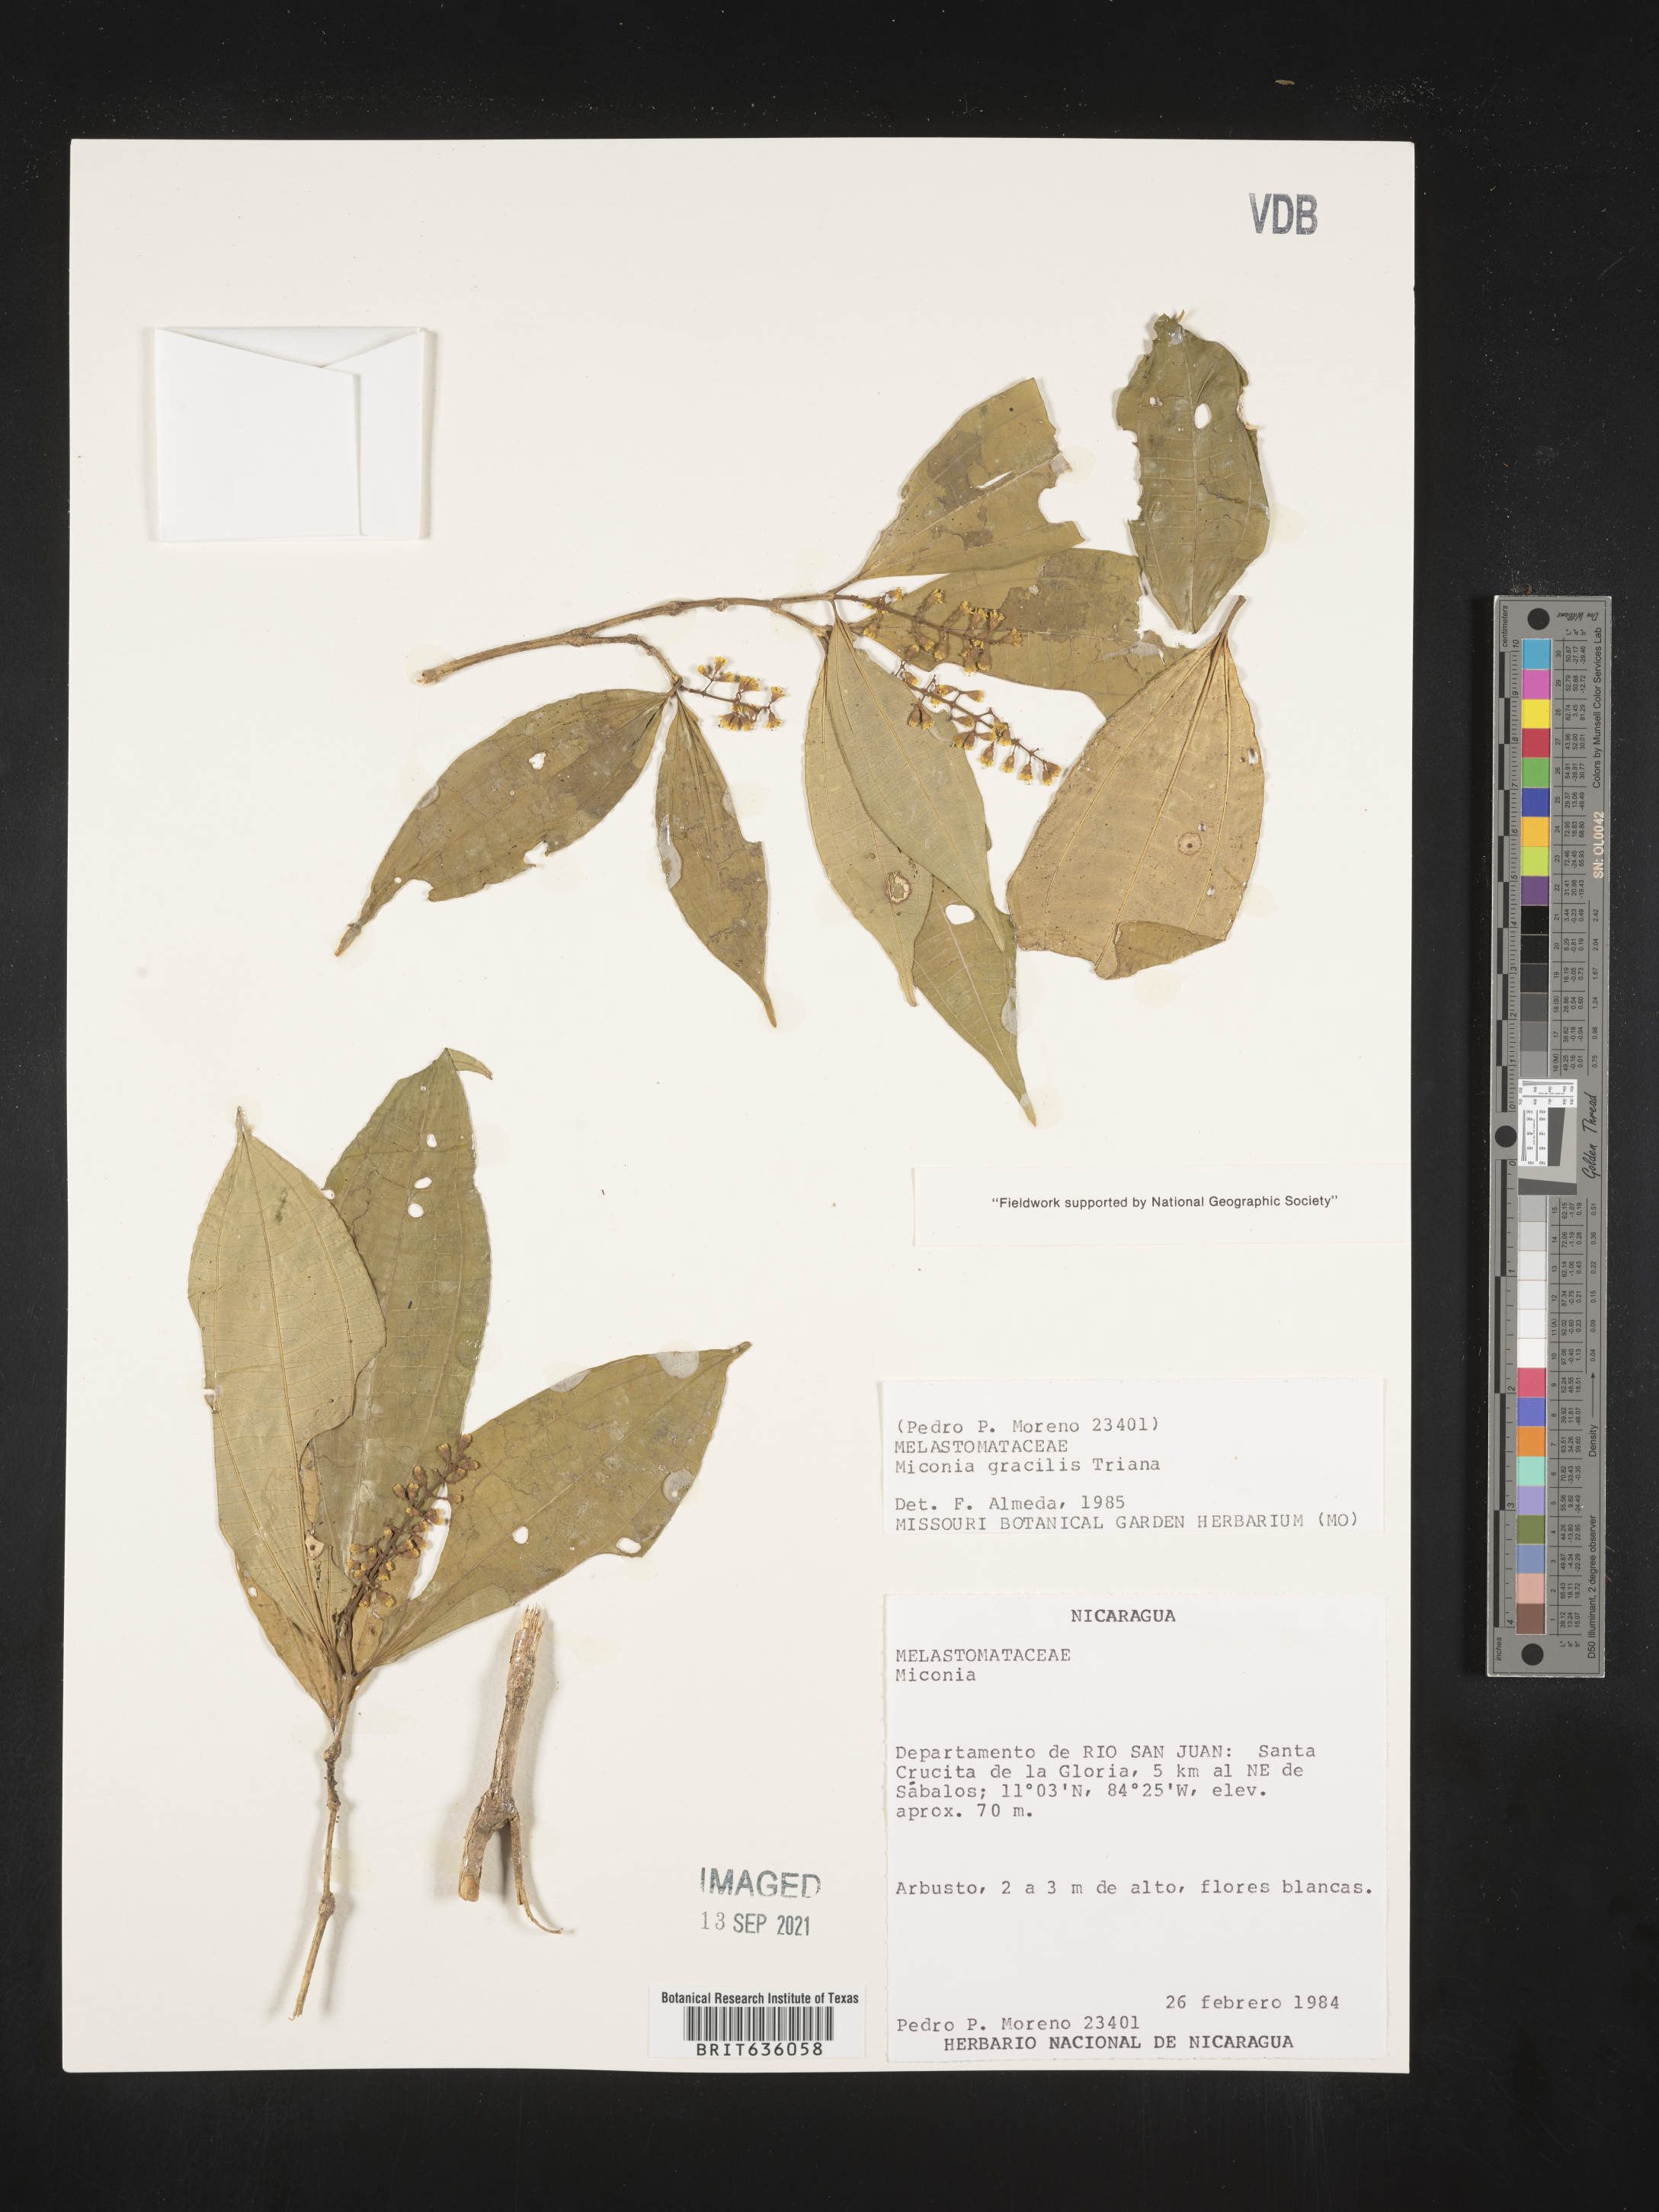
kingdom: Plantae
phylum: Tracheophyta
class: Magnoliopsida
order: Myrtales
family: Melastomataceae
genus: Miconia
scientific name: Miconia
